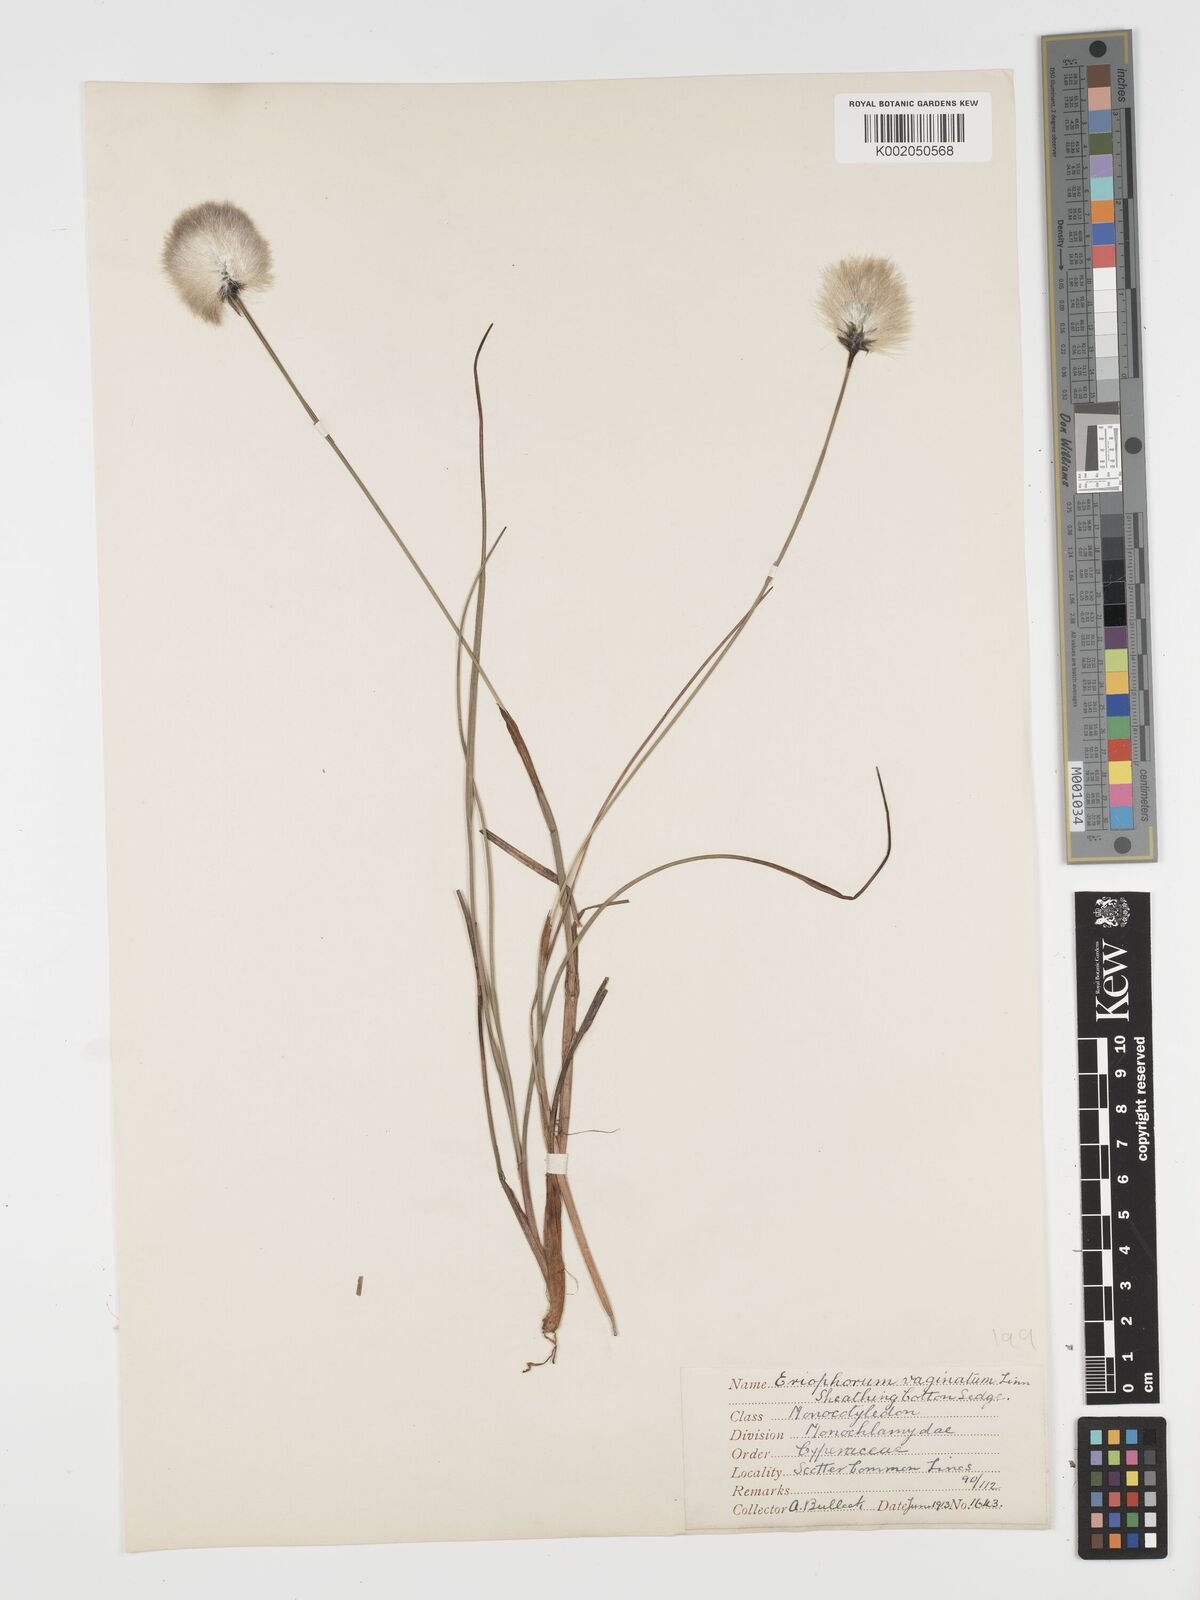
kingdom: Plantae
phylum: Tracheophyta
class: Liliopsida
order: Poales
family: Cyperaceae
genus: Eriophorum
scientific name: Eriophorum vaginatum
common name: Hare's-tail cottongrass
